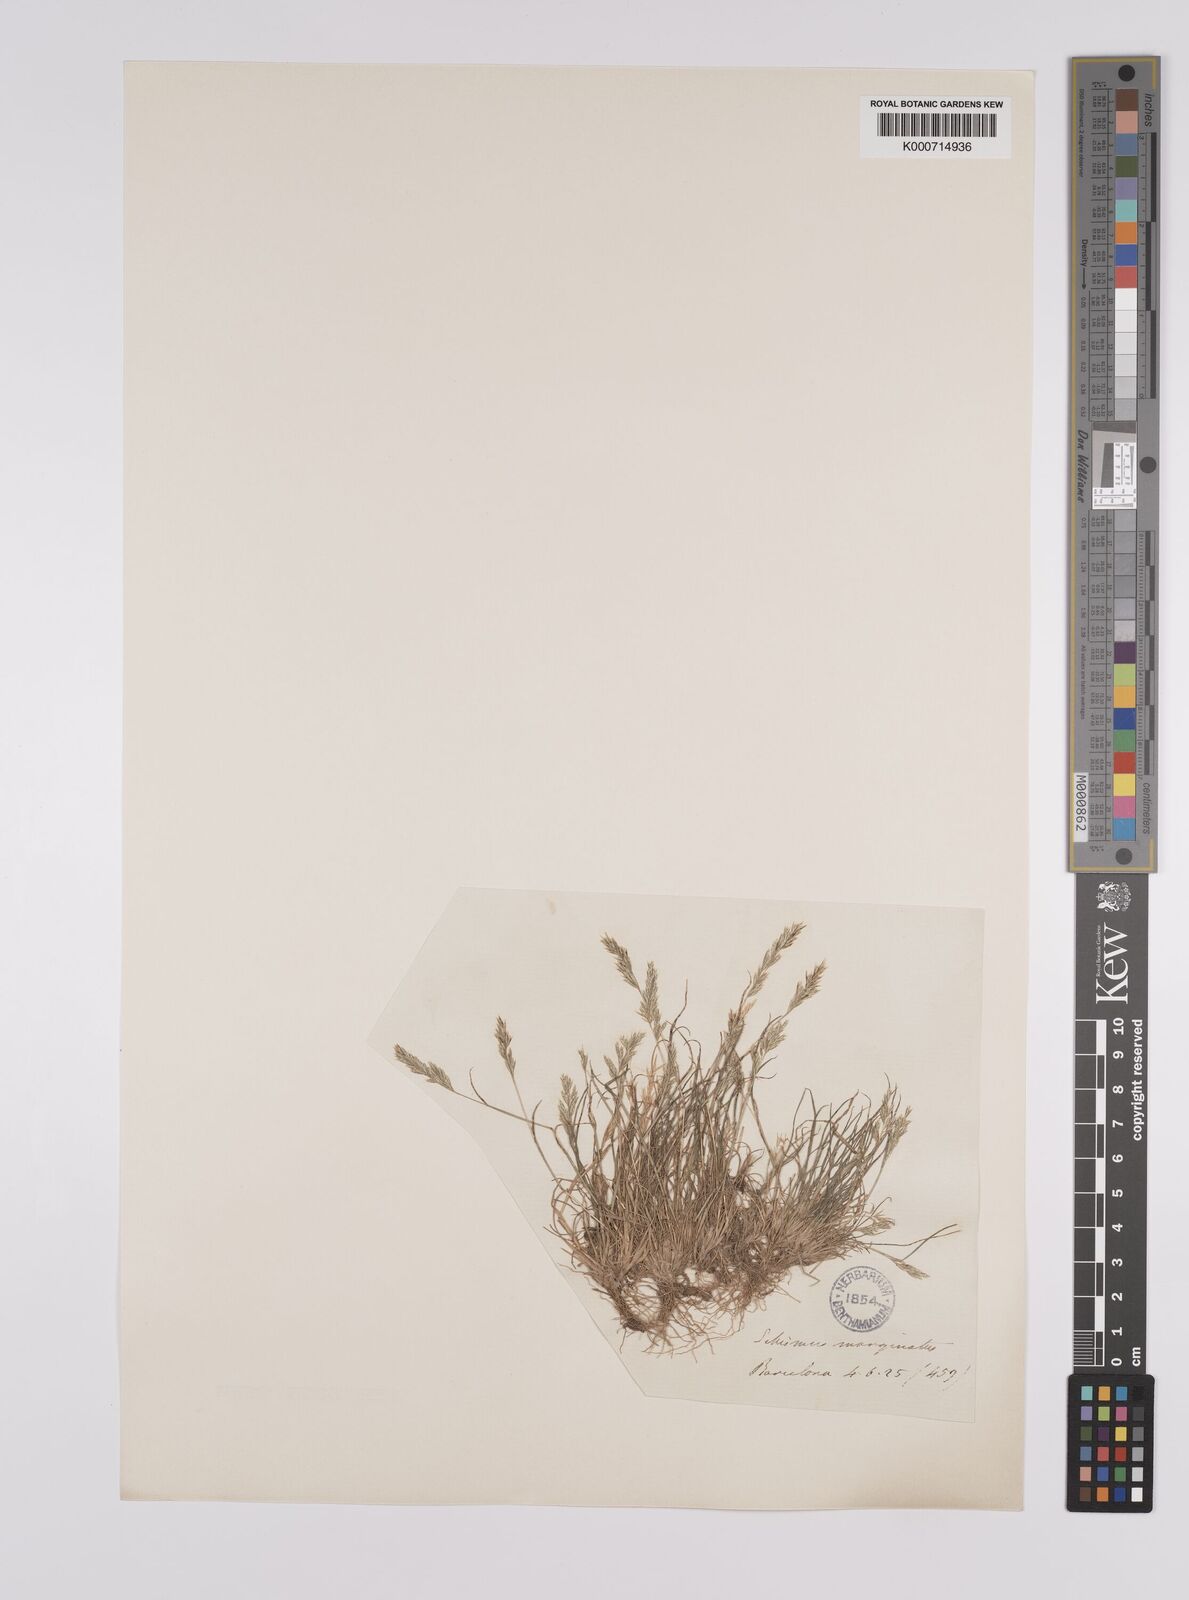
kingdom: Plantae
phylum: Tracheophyta
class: Liliopsida
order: Poales
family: Poaceae
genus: Schismus
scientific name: Schismus barbatus
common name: Kelch-grass
